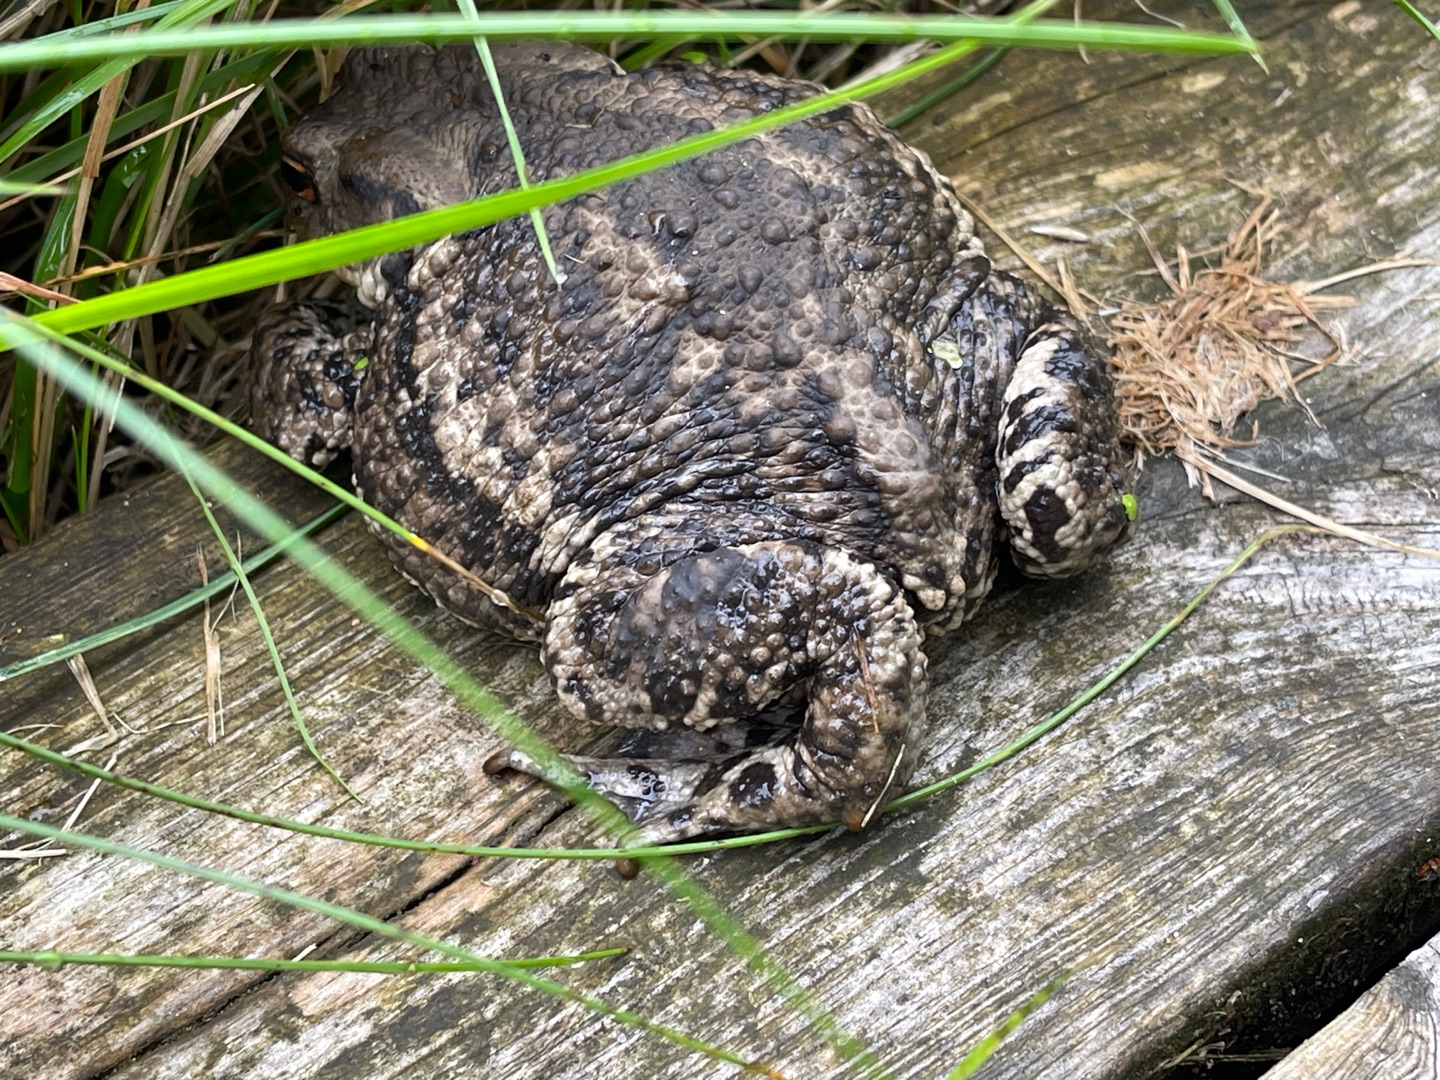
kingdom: Animalia
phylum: Chordata
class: Amphibia
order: Anura
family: Bufonidae
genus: Bufo
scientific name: Bufo bufo
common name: Skrubtudse
